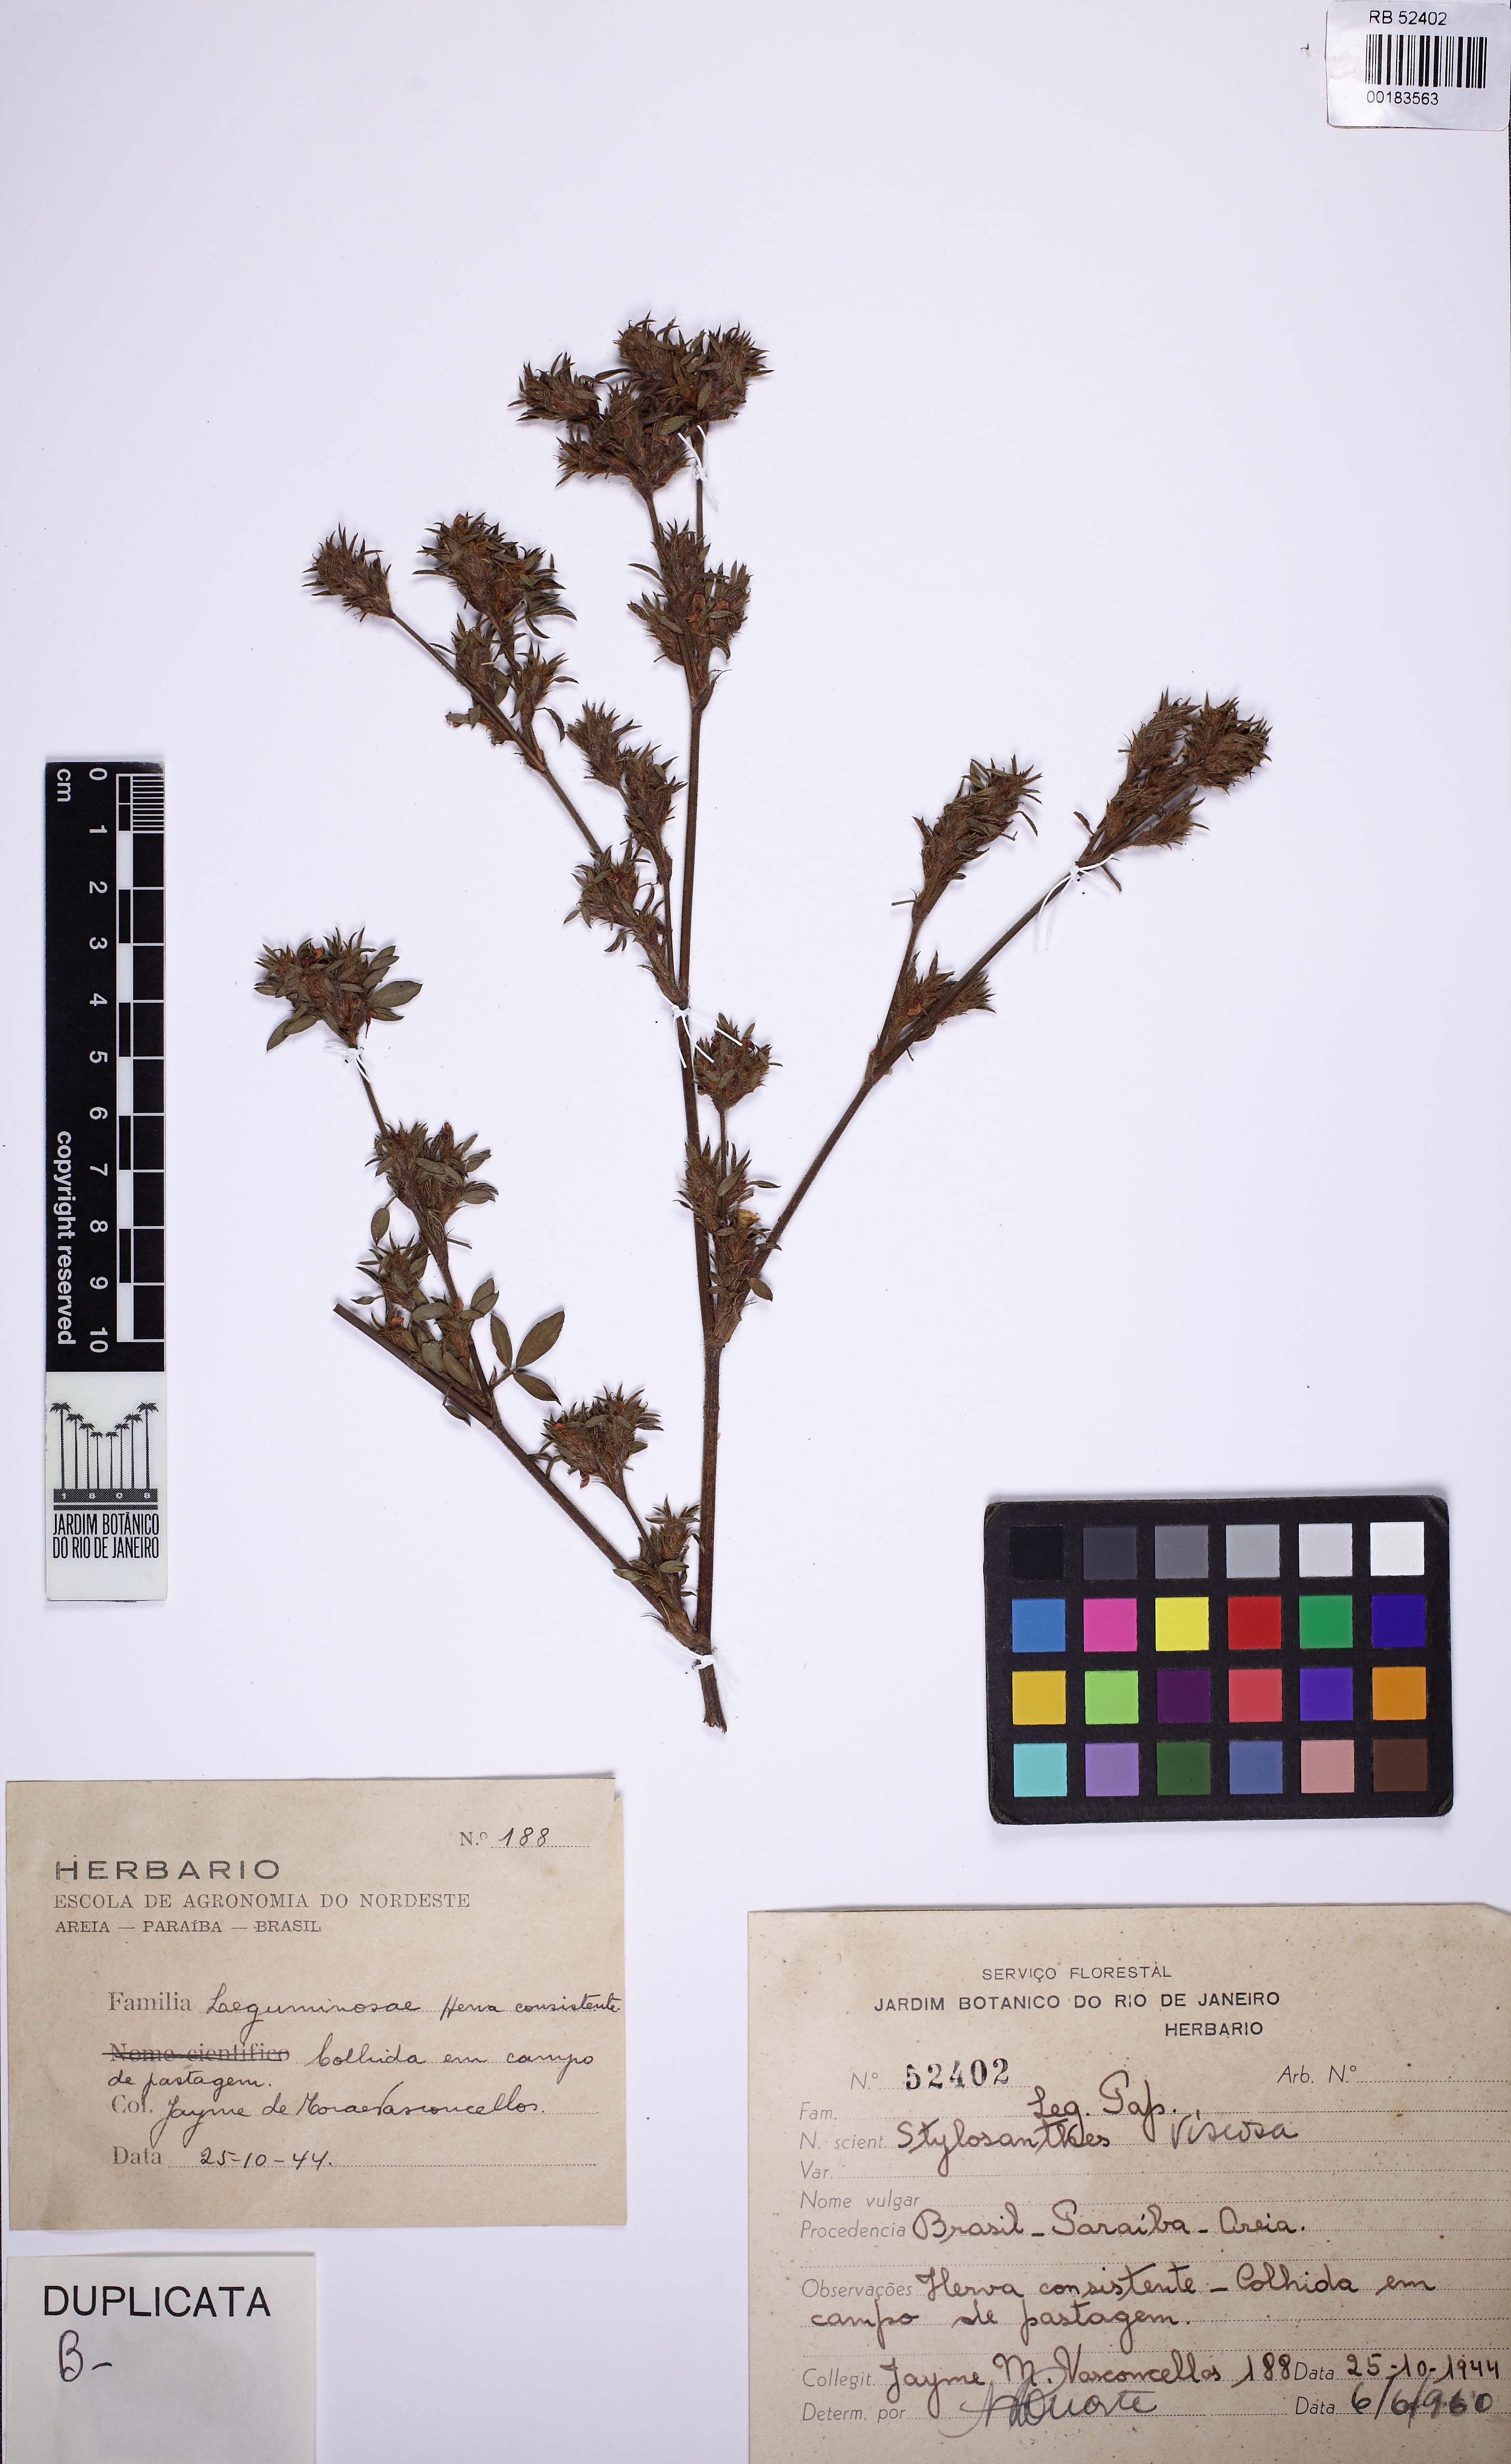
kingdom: Plantae
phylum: Tracheophyta
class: Magnoliopsida
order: Fabales
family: Fabaceae
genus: Stylosanthes
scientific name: Stylosanthes viscosa
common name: Viscid pencil-flower
